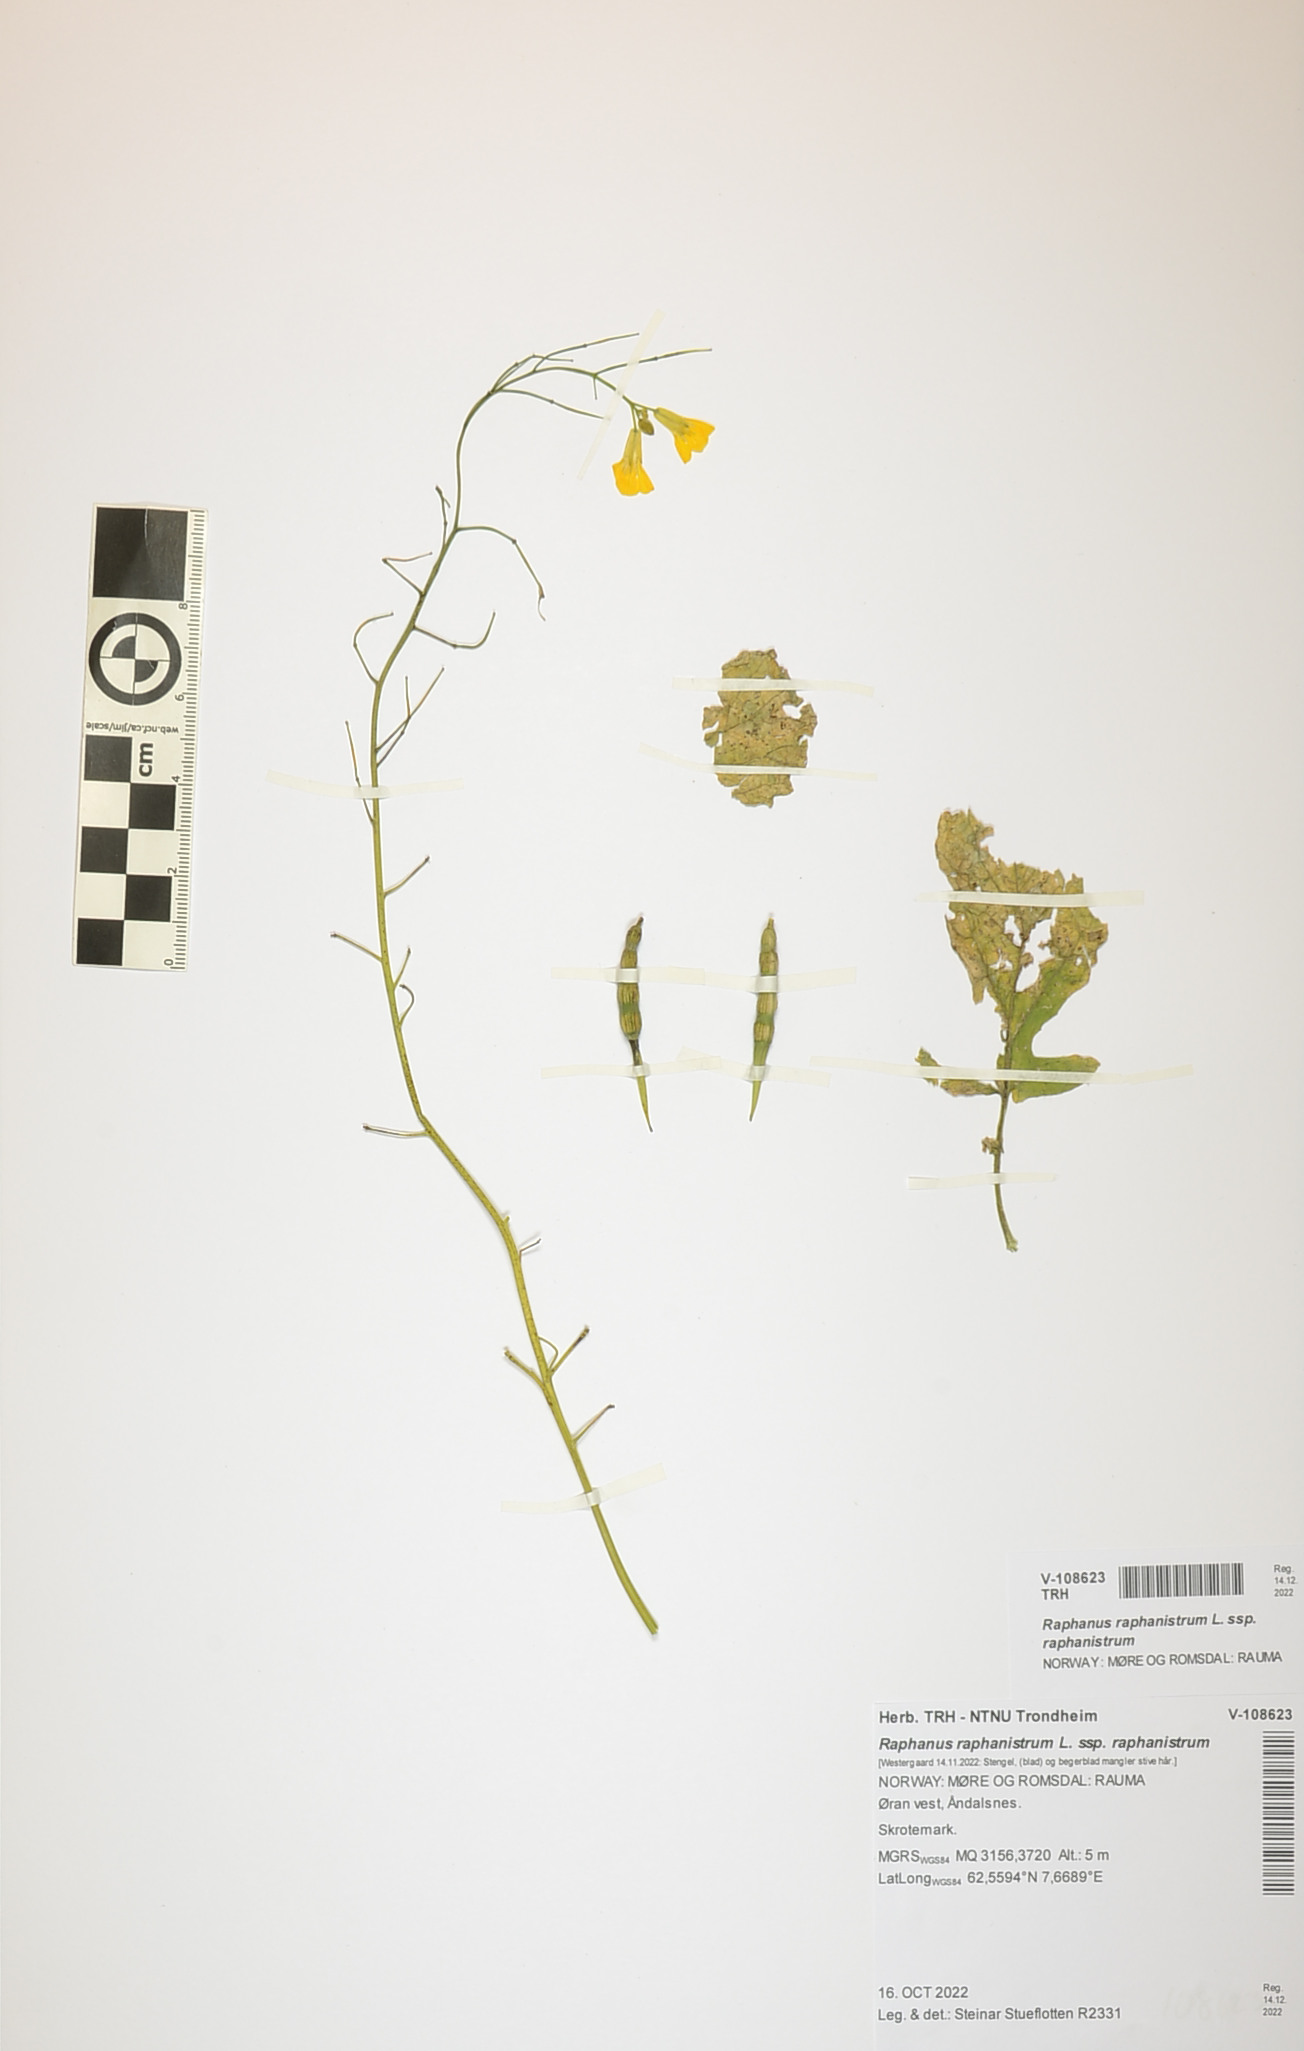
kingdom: Plantae
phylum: Tracheophyta
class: Magnoliopsida
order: Brassicales
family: Brassicaceae
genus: Raphanus
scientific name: Raphanus raphanistrum
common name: Wild radish
